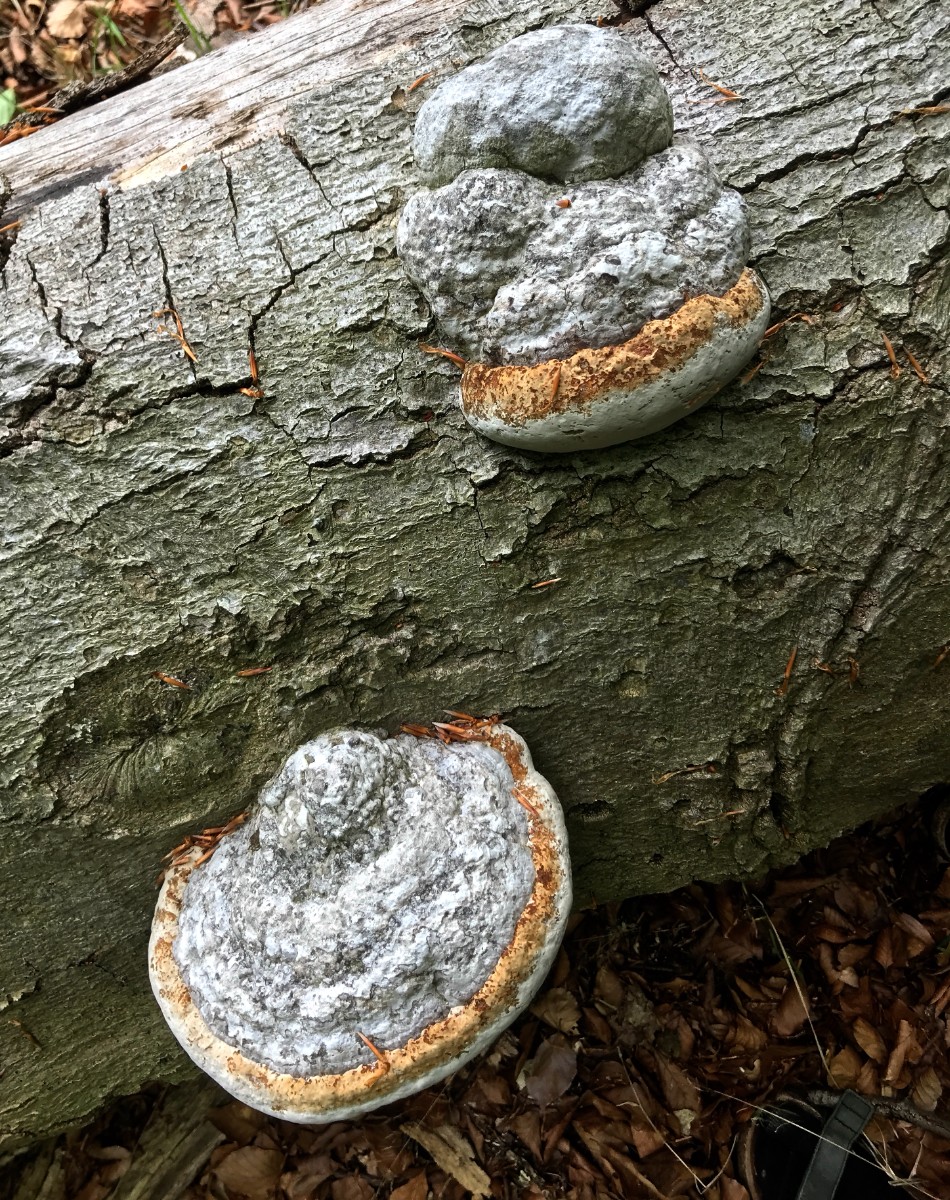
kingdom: Fungi
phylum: Basidiomycota
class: Agaricomycetes
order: Polyporales
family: Polyporaceae
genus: Fomes
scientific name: Fomes fomentarius
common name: tøndersvamp
